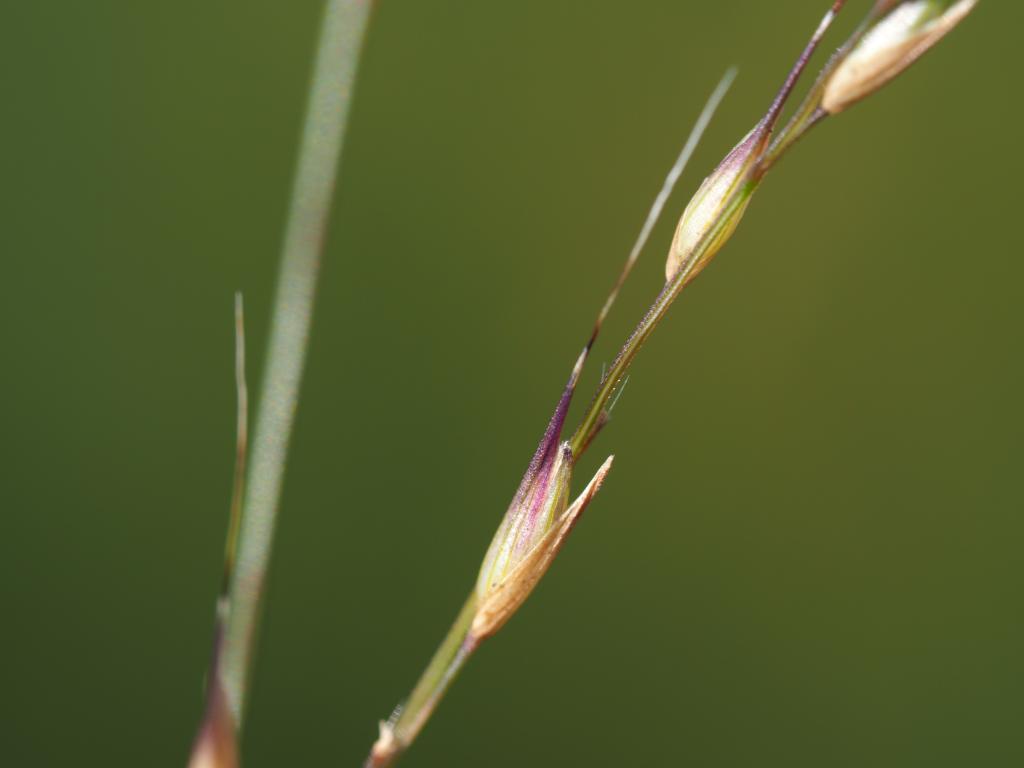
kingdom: Plantae
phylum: Tracheophyta
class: Liliopsida
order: Poales
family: Poaceae
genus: Arundinella
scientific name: Arundinella setosa
